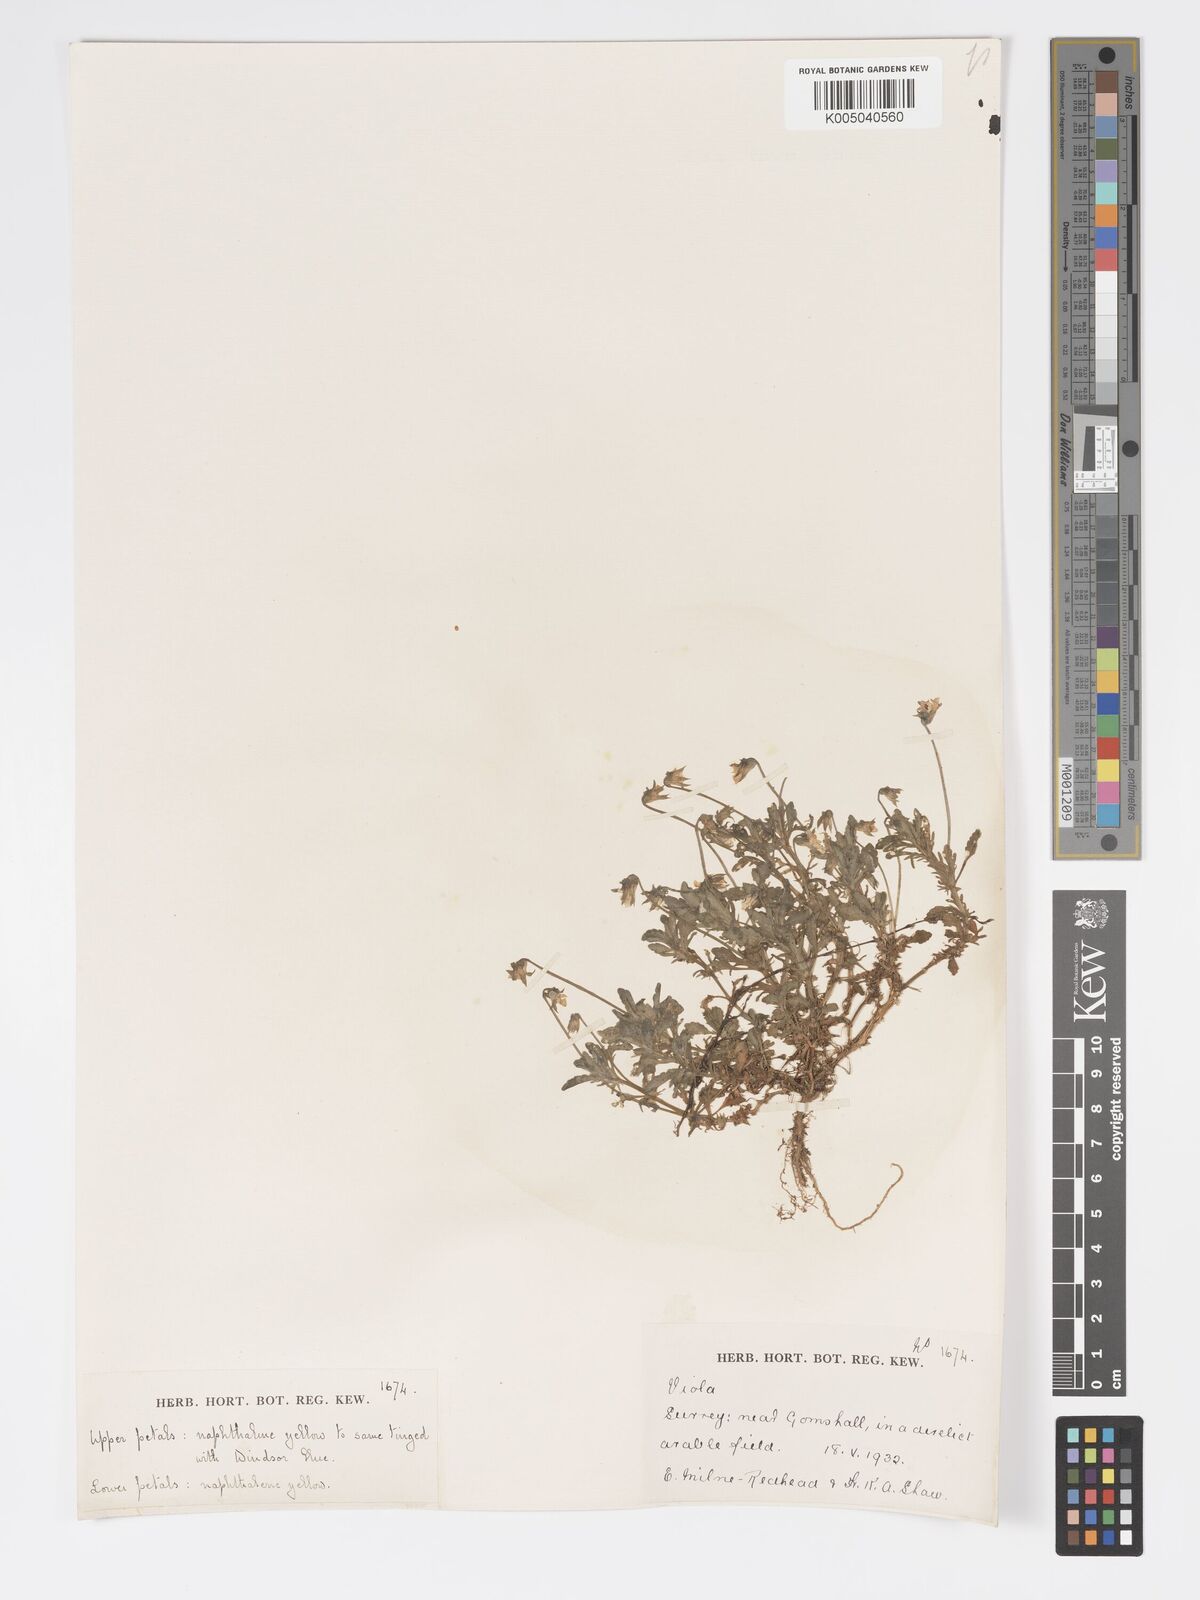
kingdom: Plantae
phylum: Tracheophyta
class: Magnoliopsida
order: Malpighiales
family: Violaceae
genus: Viola
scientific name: Viola
